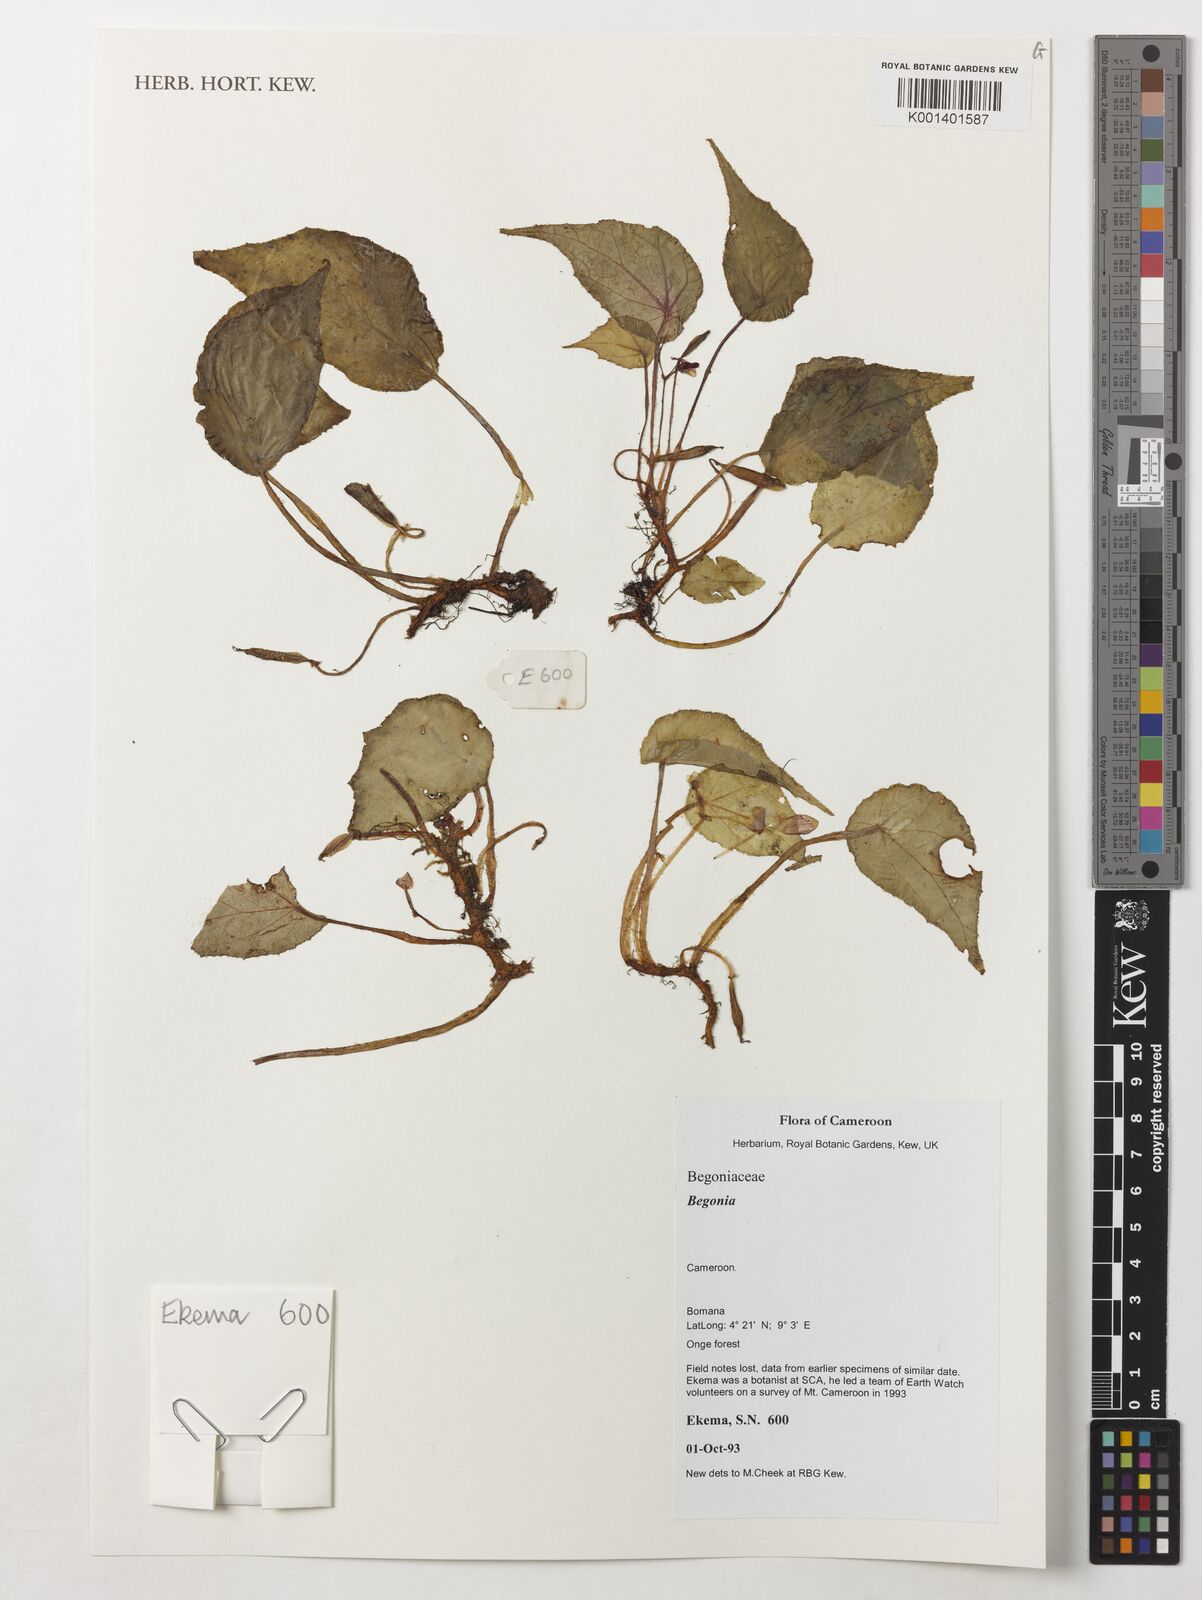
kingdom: Plantae
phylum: Tracheophyta
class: Magnoliopsida
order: Cucurbitales
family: Begoniaceae
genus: Begonia
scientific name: Begonia
